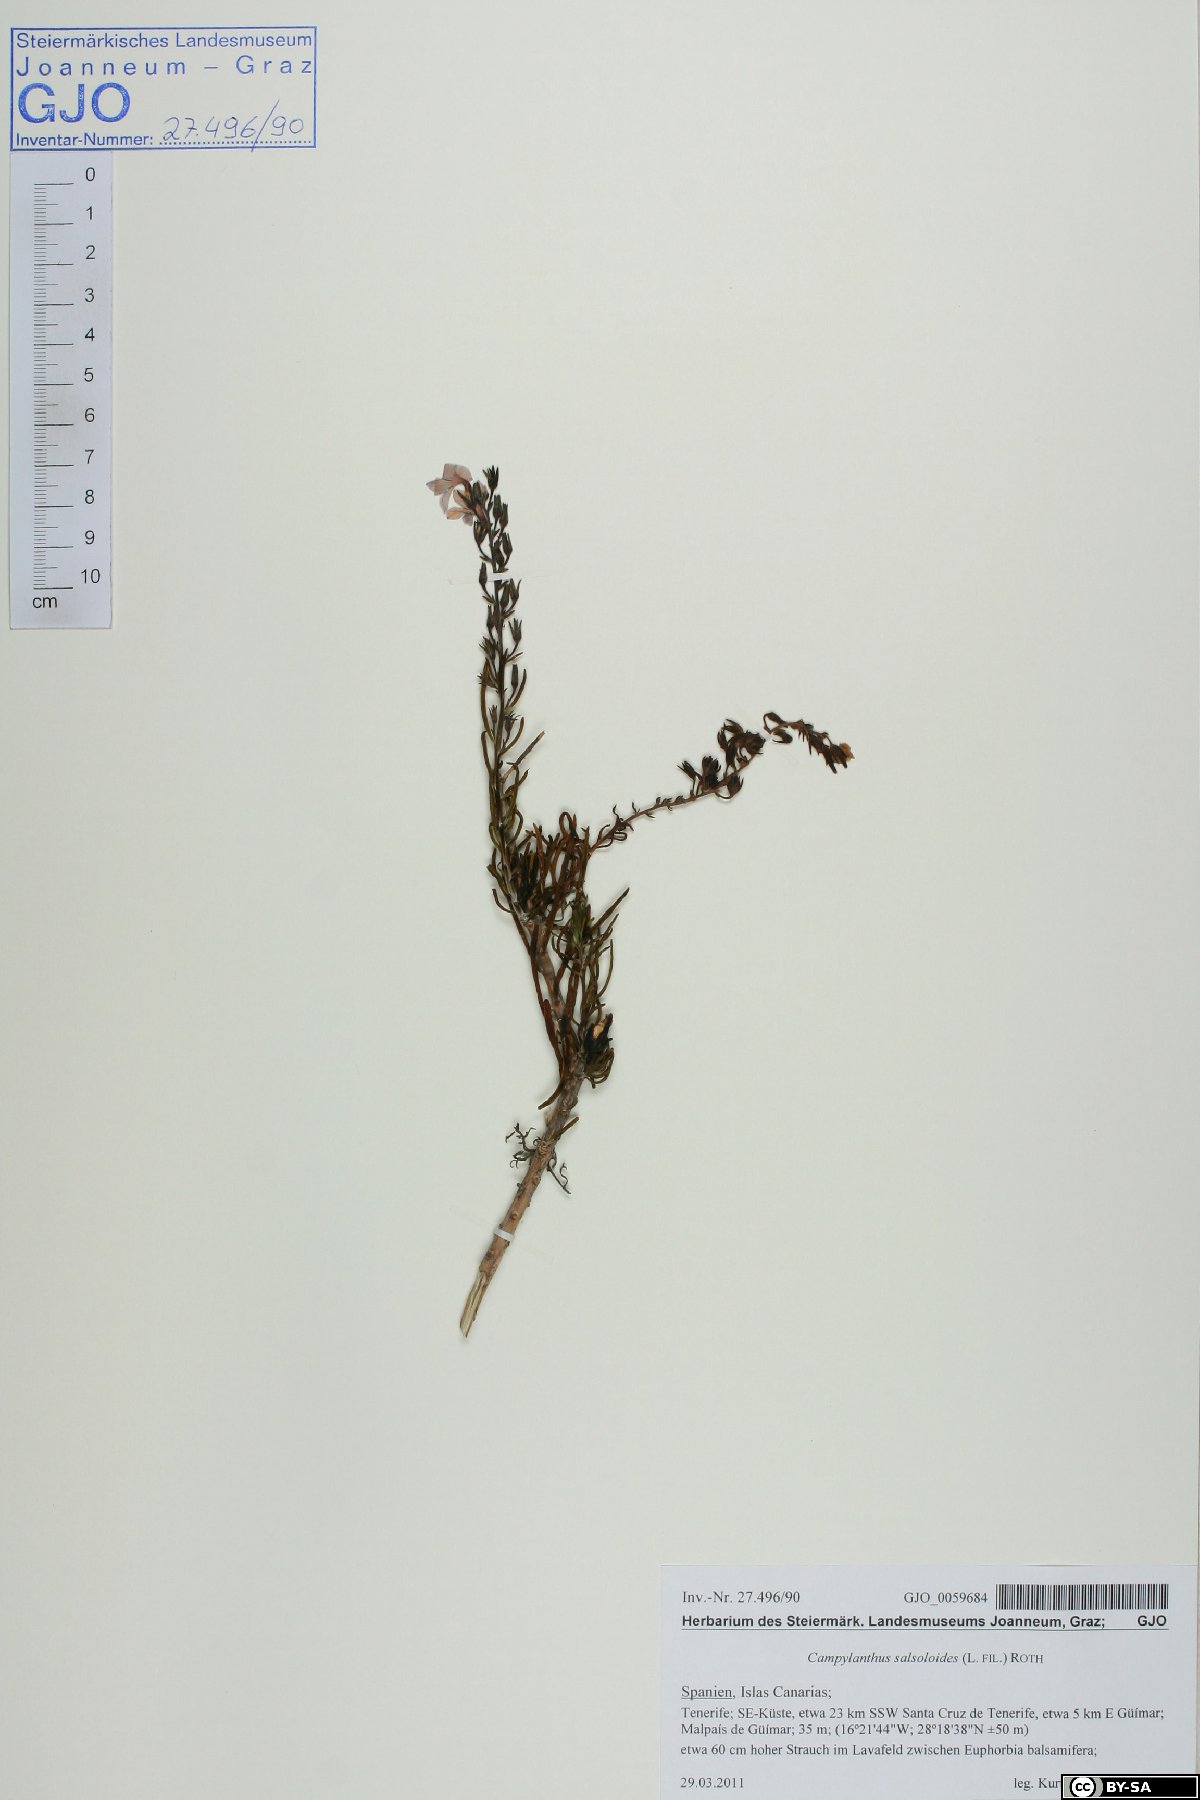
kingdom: Plantae
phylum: Tracheophyta
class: Magnoliopsida
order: Lamiales
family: Plantaginaceae
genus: Campylanthus
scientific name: Campylanthus salsoloides
